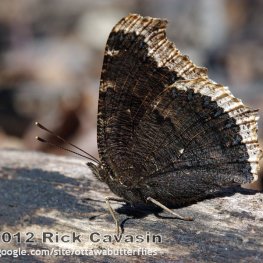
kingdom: Animalia
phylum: Arthropoda
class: Insecta
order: Lepidoptera
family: Nymphalidae
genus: Nymphalis
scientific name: Nymphalis antiopa
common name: Mourning Cloak
